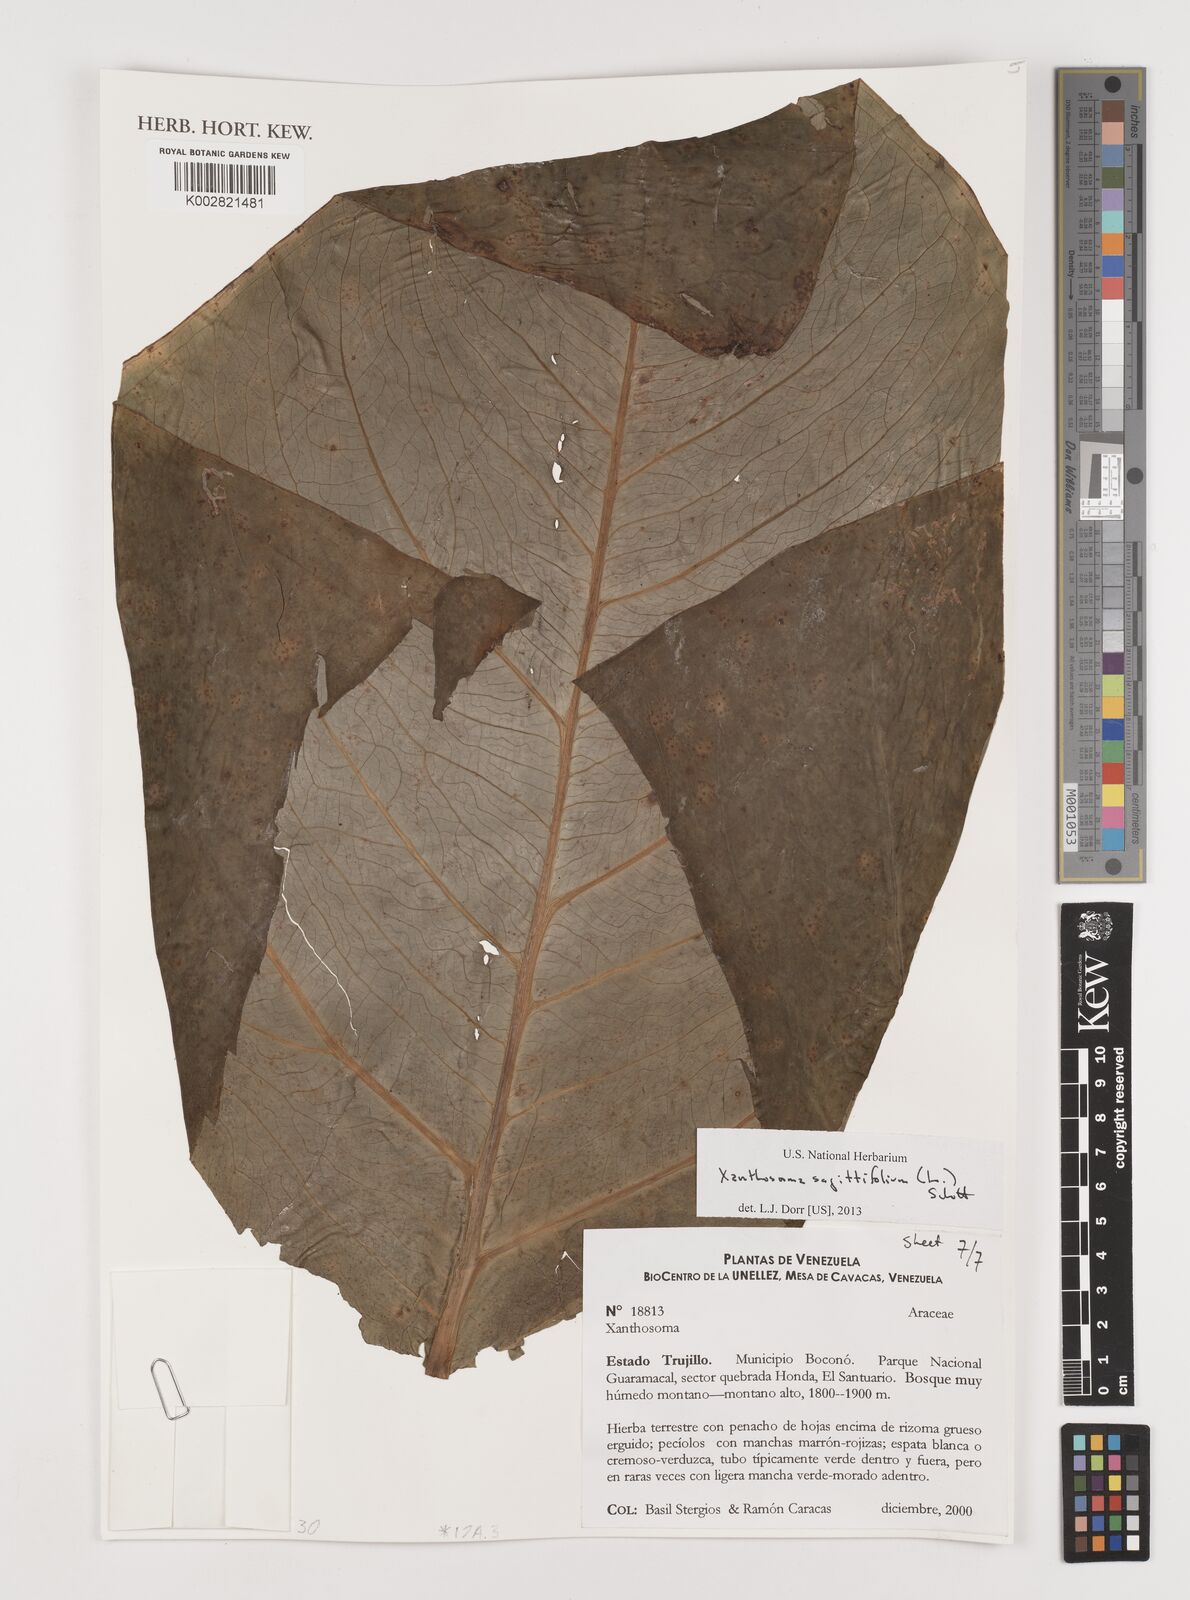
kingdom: Plantae
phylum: Tracheophyta
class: Liliopsida
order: Alismatales
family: Araceae
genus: Xanthosoma
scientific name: Xanthosoma sagittifolium
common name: Arrowleaf elephant's ear
